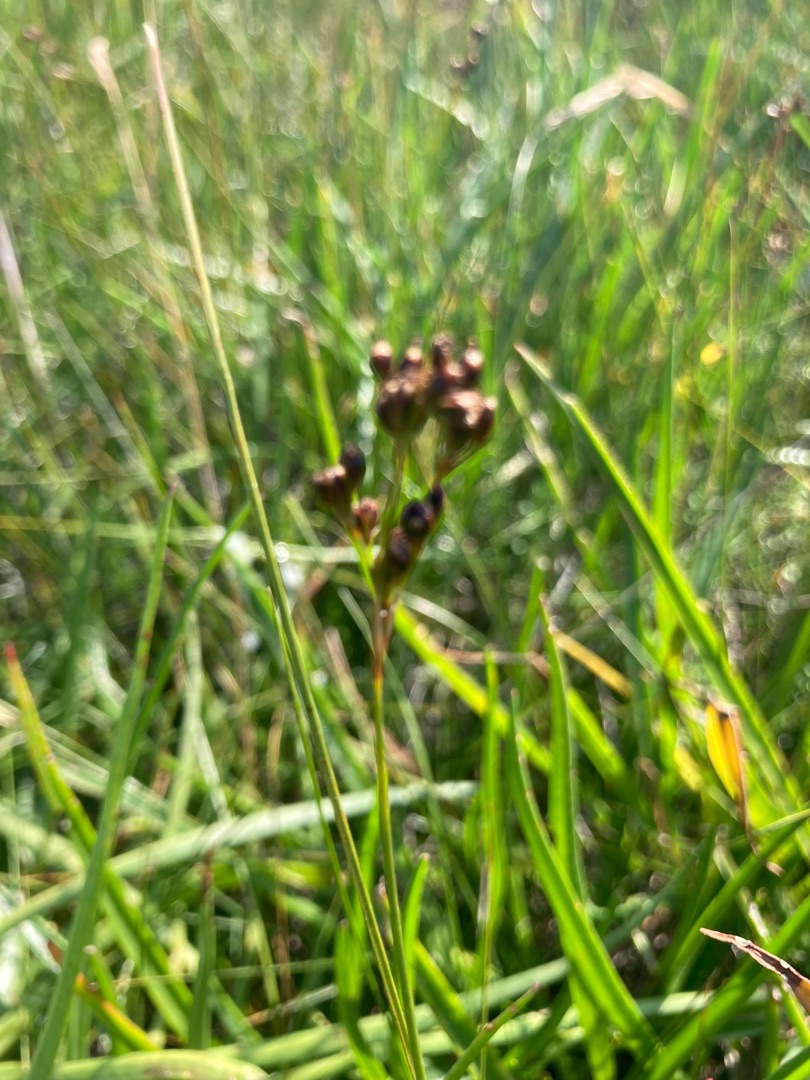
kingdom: Plantae
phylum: Tracheophyta
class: Liliopsida
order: Poales
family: Juncaceae
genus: Juncus
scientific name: Juncus gerardi
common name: Harril
